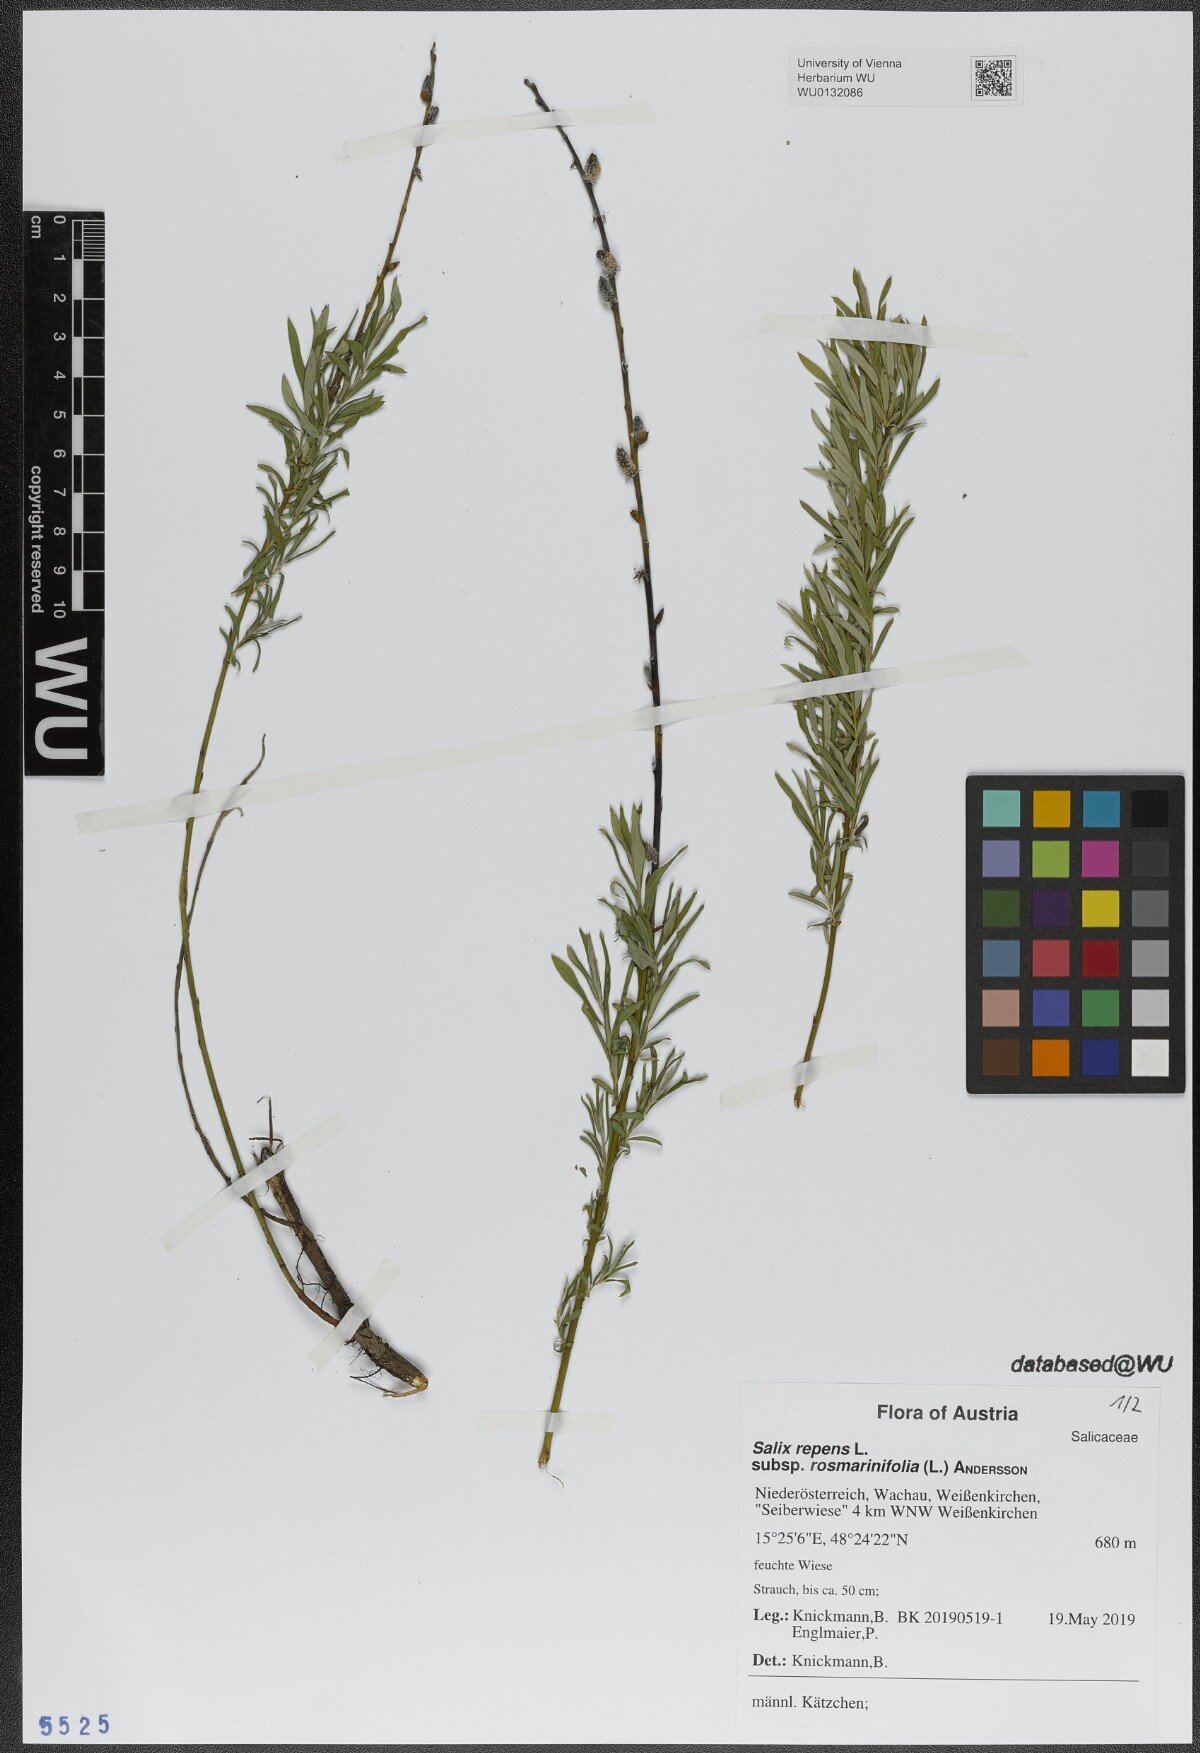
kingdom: Plantae
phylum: Tracheophyta
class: Magnoliopsida
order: Malpighiales
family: Salicaceae
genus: Salix
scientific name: Salix repens
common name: Creeping willow
